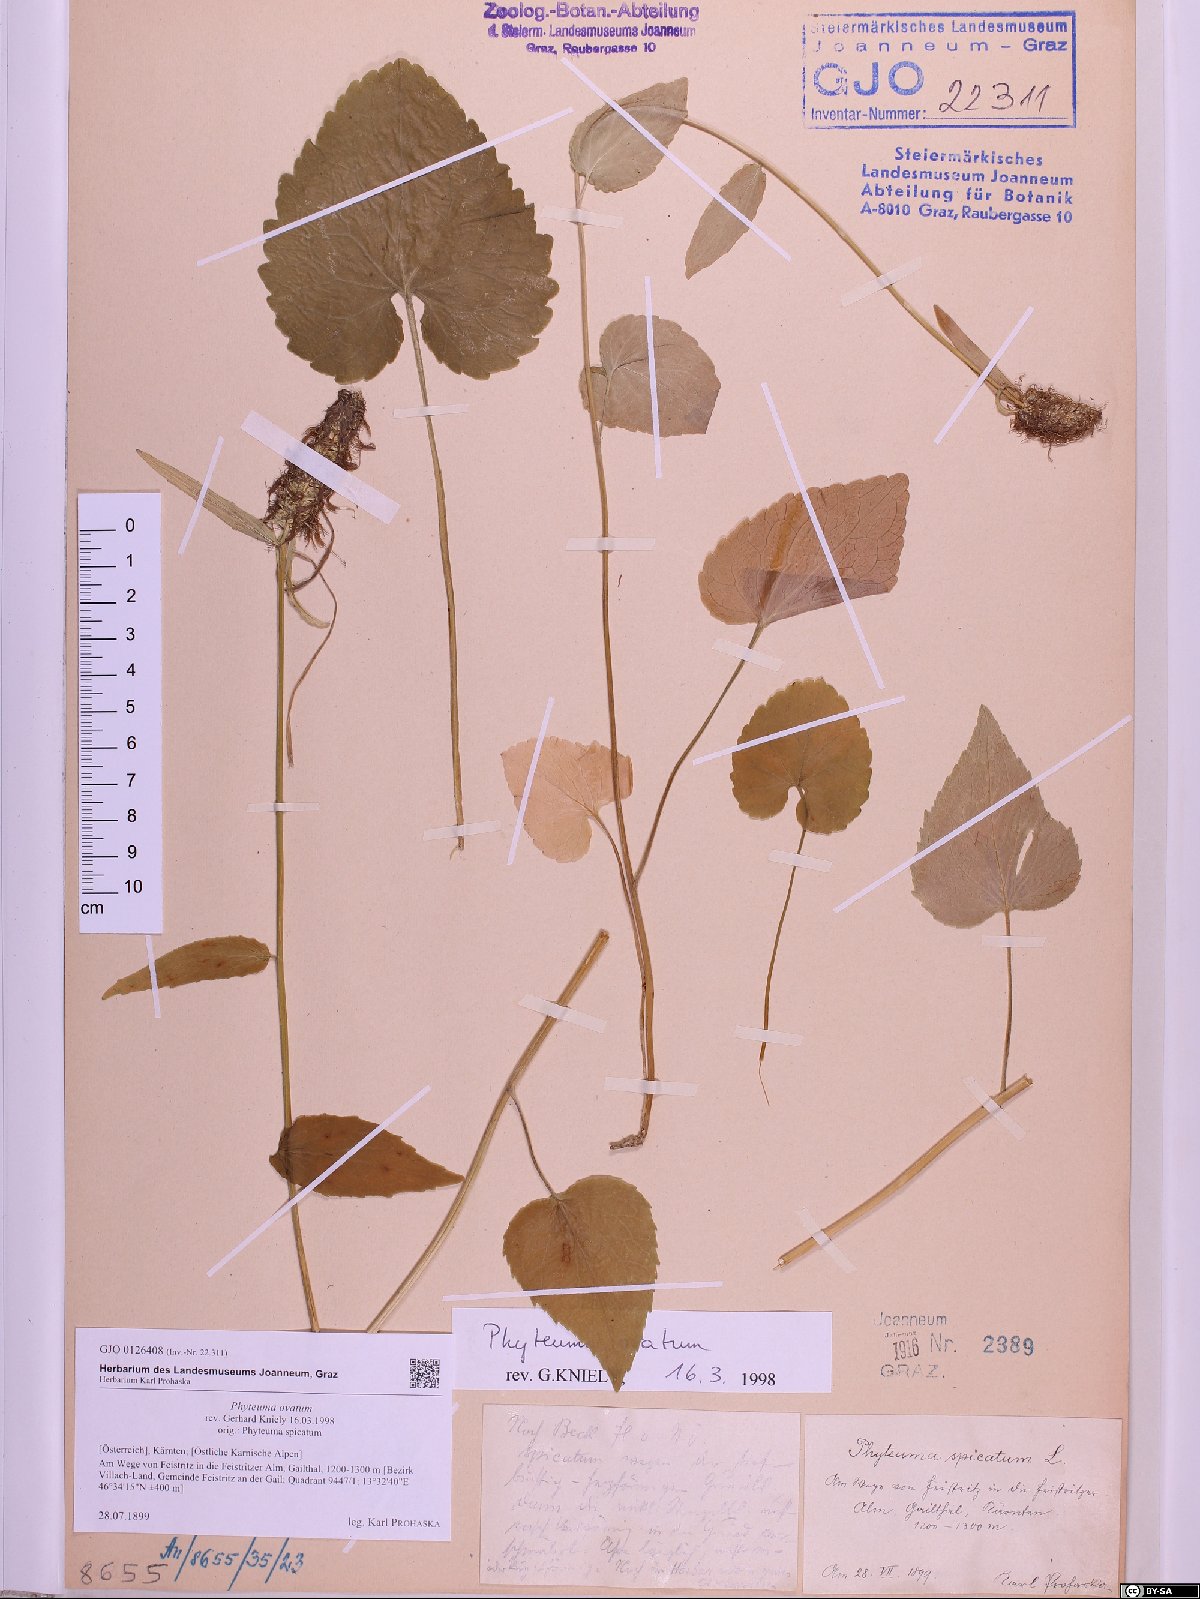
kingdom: Plantae
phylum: Tracheophyta
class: Magnoliopsida
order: Asterales
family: Campanulaceae
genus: Phyteuma
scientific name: Phyteuma ovatum
